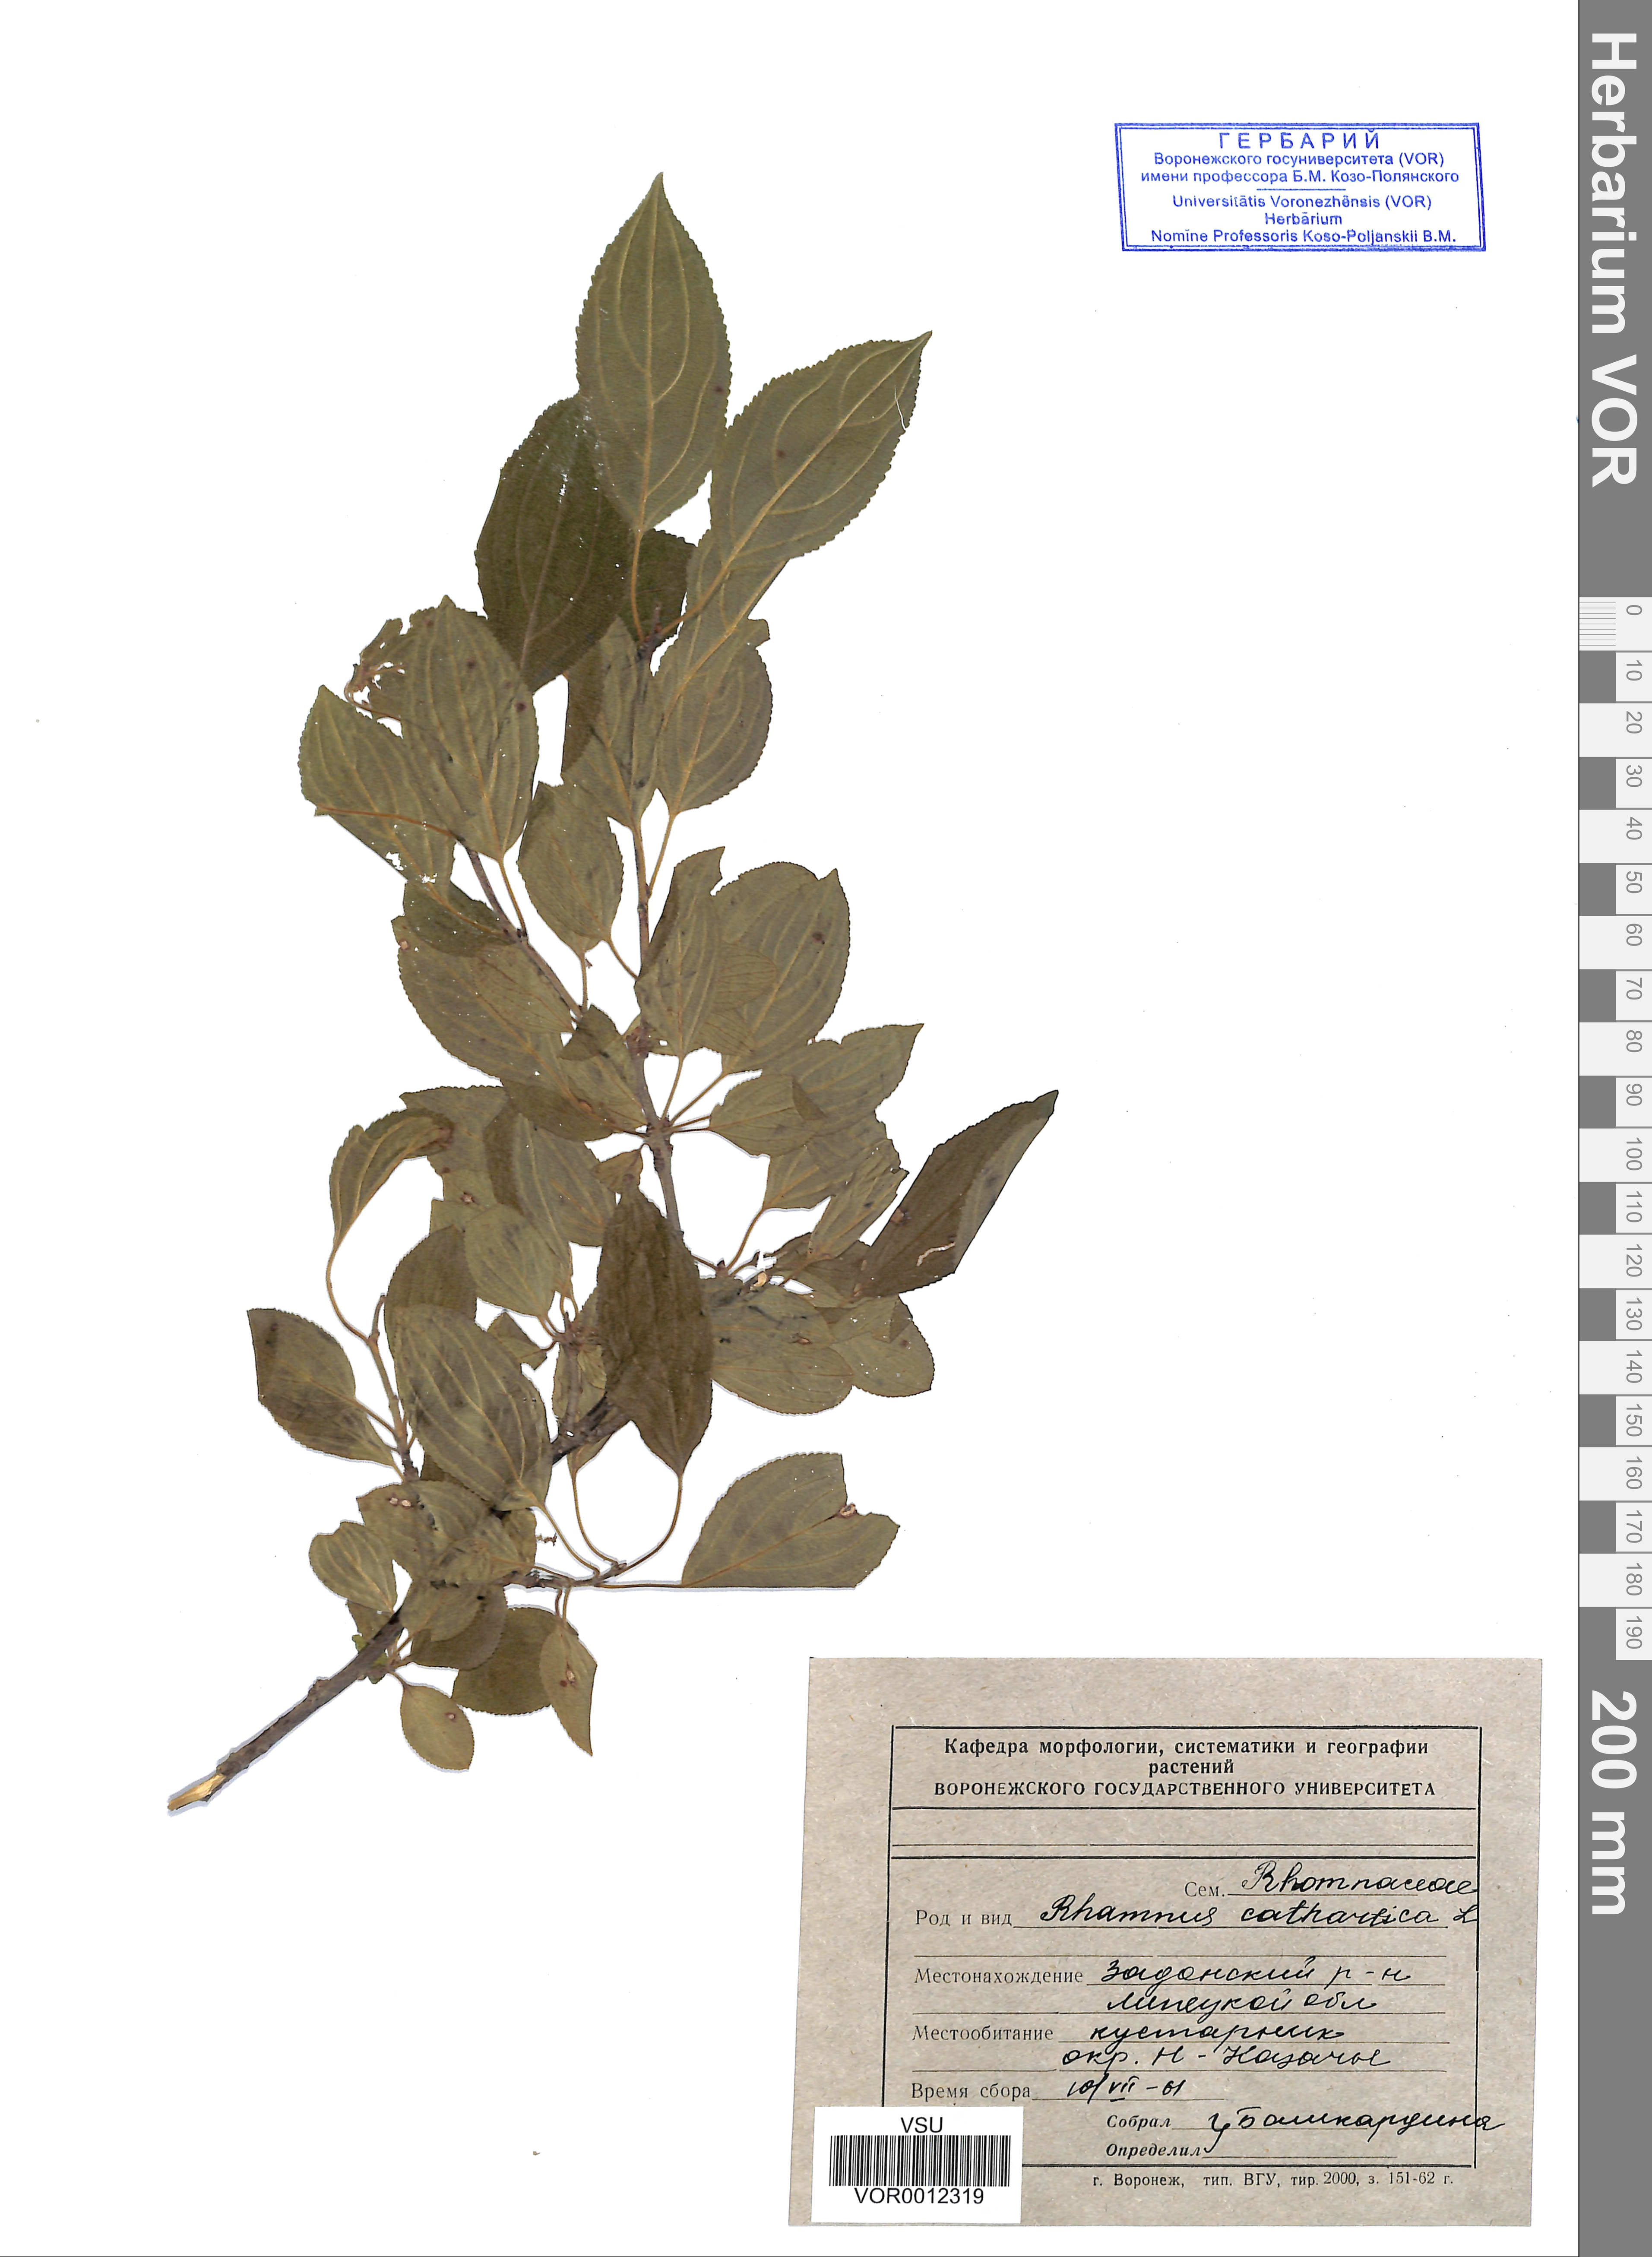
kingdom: Plantae
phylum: Tracheophyta
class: Magnoliopsida
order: Rosales
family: Rhamnaceae
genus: Rhamnus
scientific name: Rhamnus cathartica
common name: Common buckthorn
